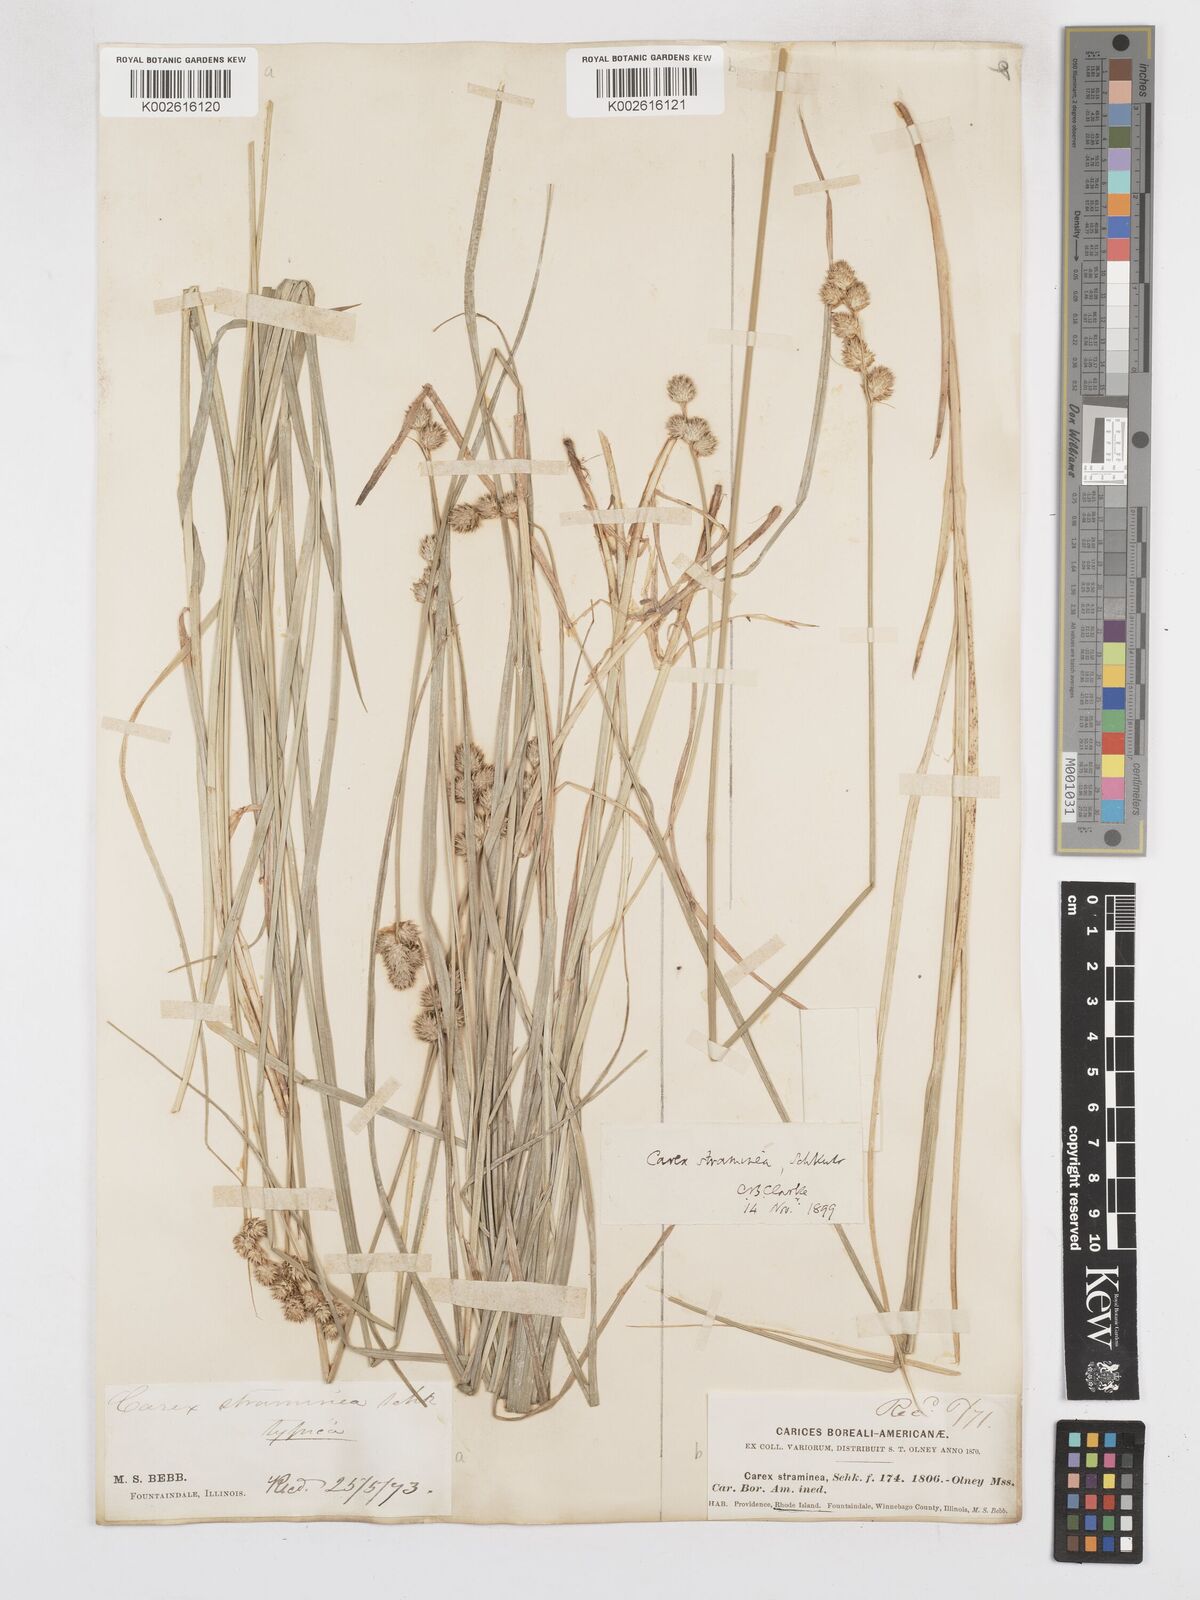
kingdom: Plantae
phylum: Tracheophyta
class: Liliopsida
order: Poales
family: Cyperaceae
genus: Carex
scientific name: Carex brevior
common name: Brevior sedge
